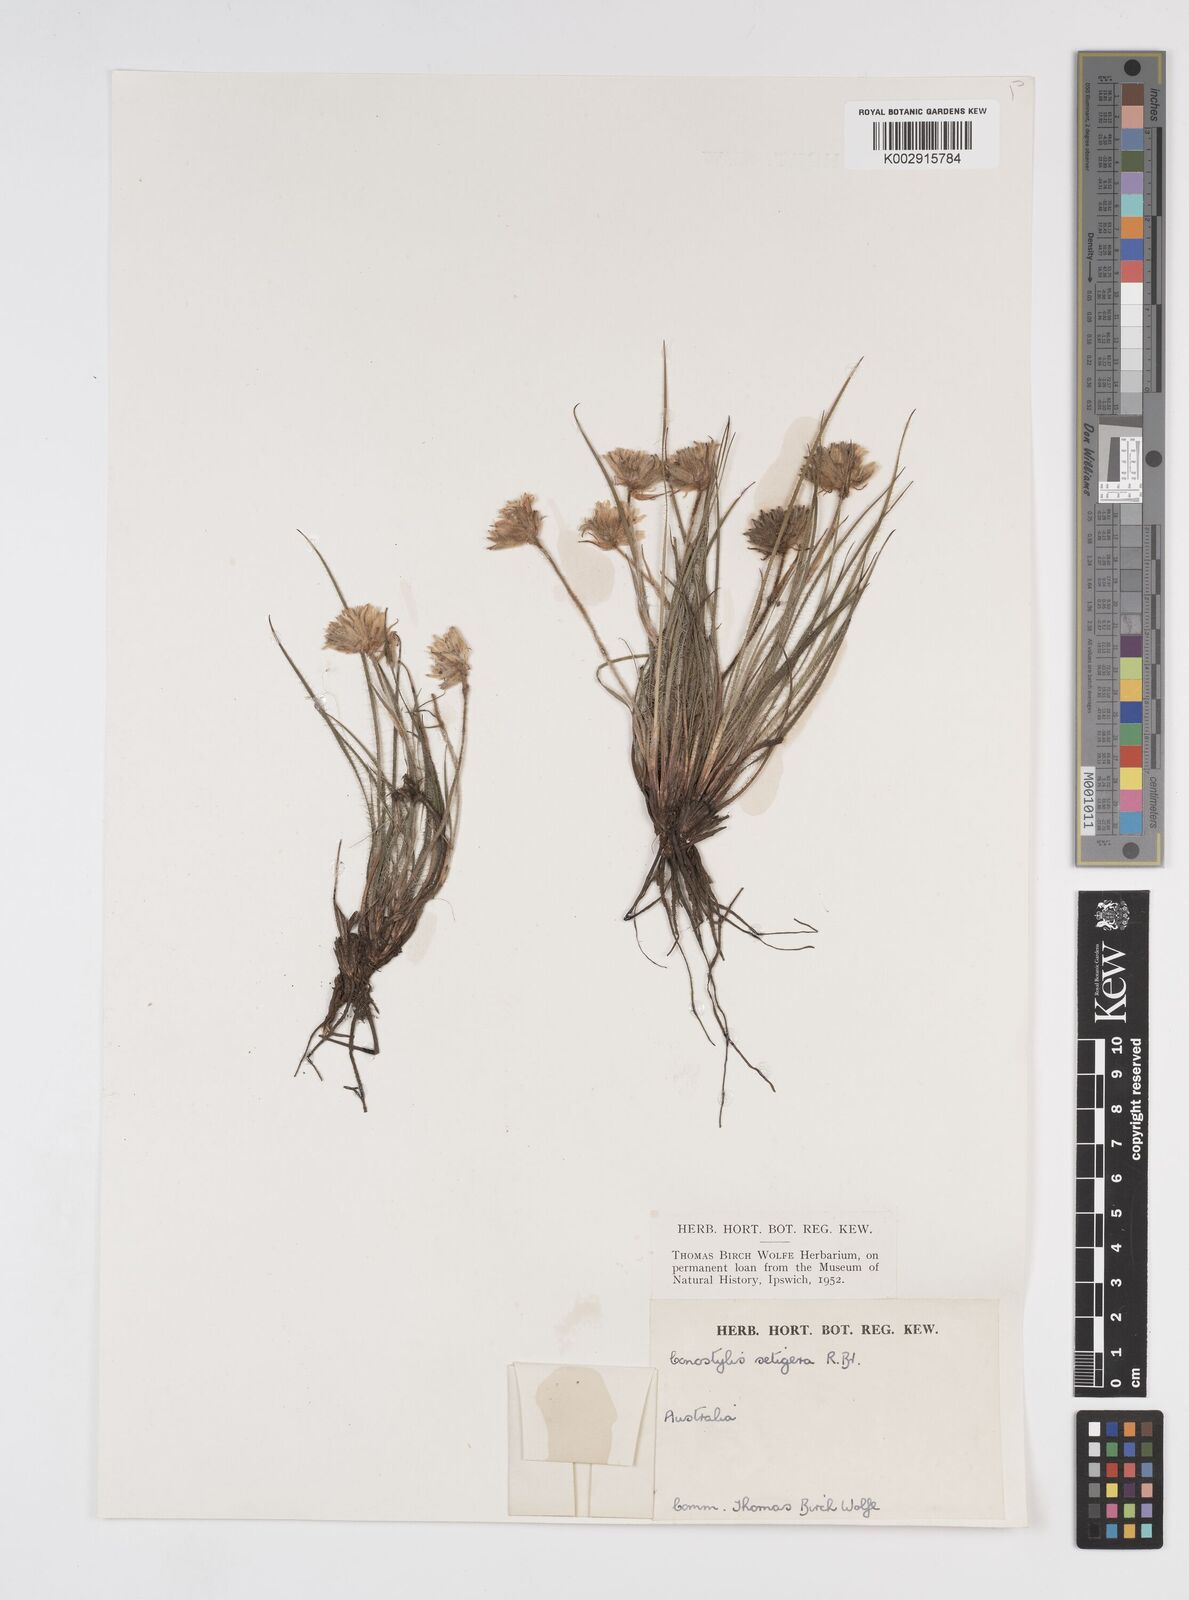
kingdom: Plantae
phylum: Tracheophyta
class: Liliopsida
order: Commelinales
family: Haemodoraceae
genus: Conostylis
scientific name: Conostylis setigera
